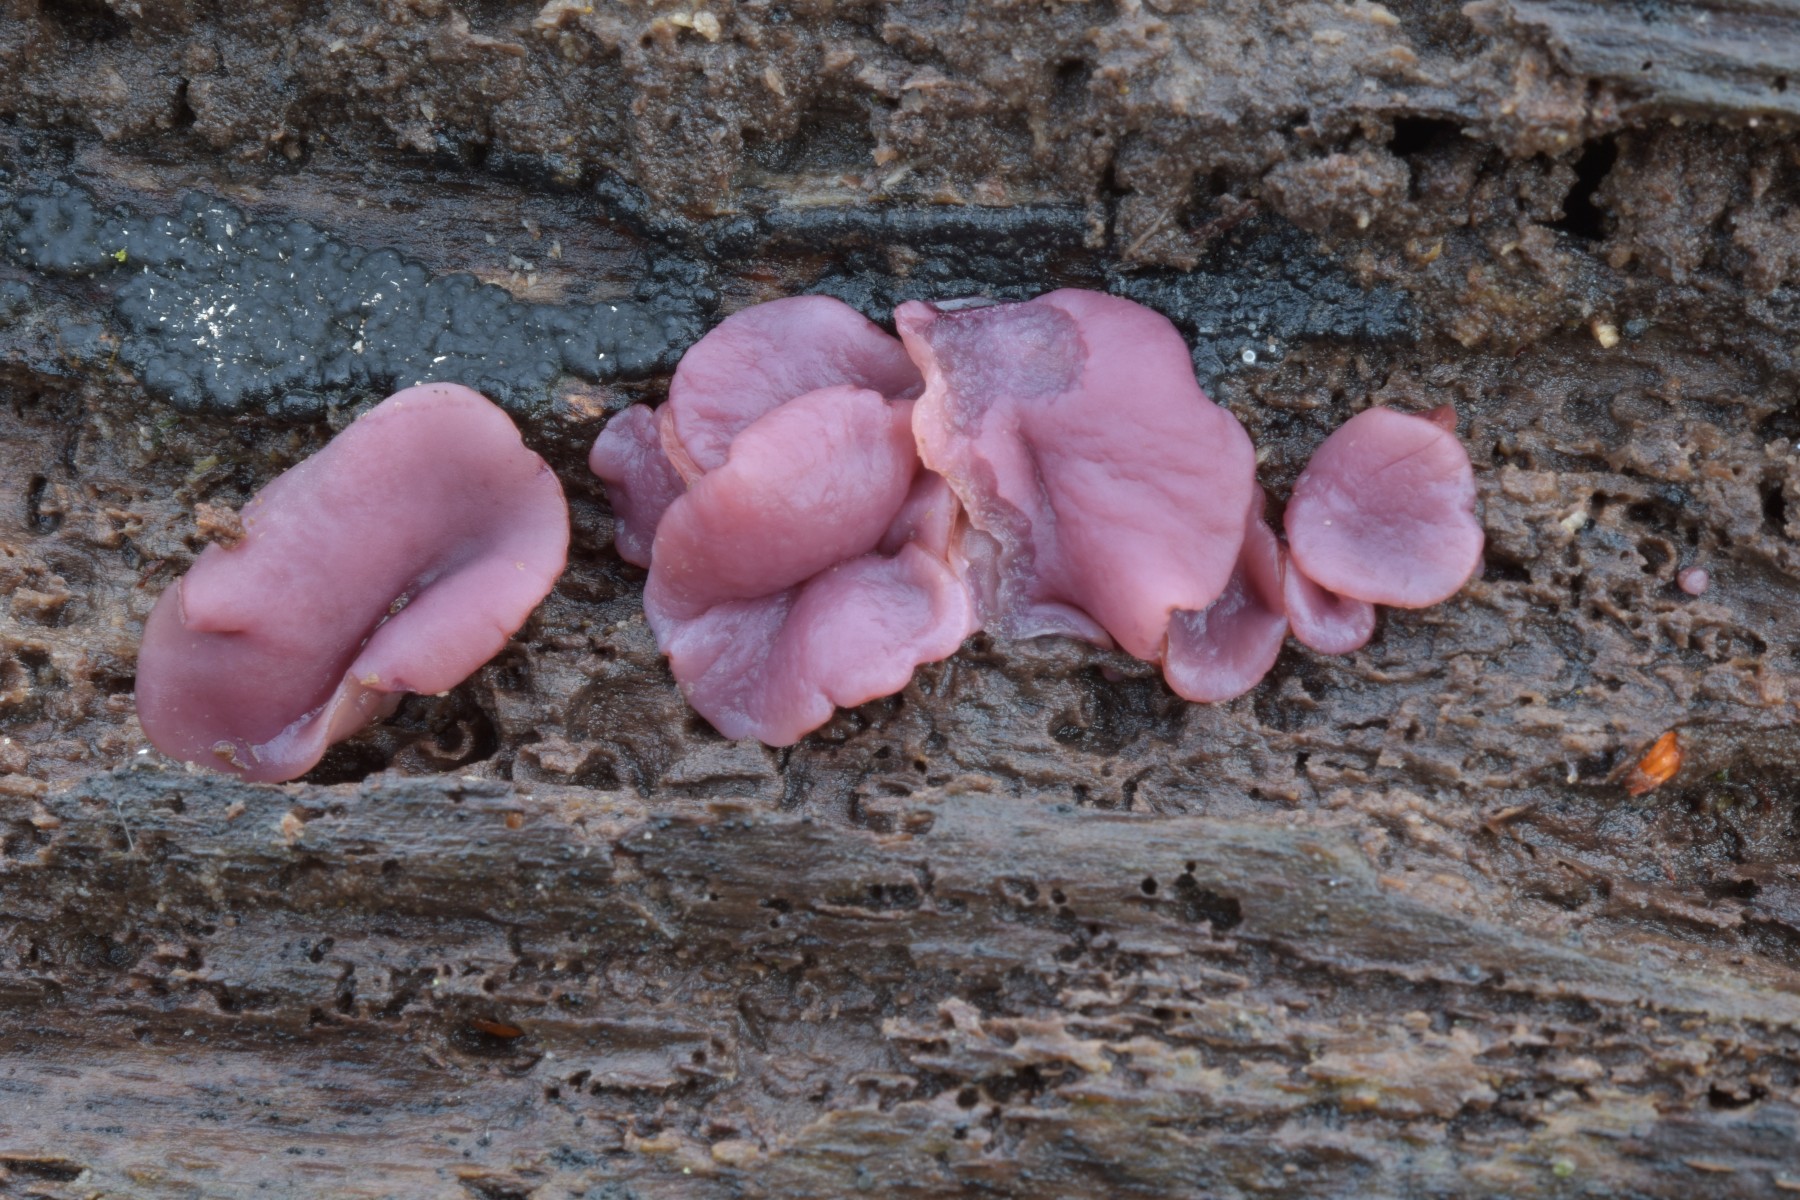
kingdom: Fungi
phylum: Ascomycota
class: Leotiomycetes
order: Helotiales
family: Gelatinodiscaceae
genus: Ascocoryne
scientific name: Ascocoryne cylichnium
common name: stor sejskive
